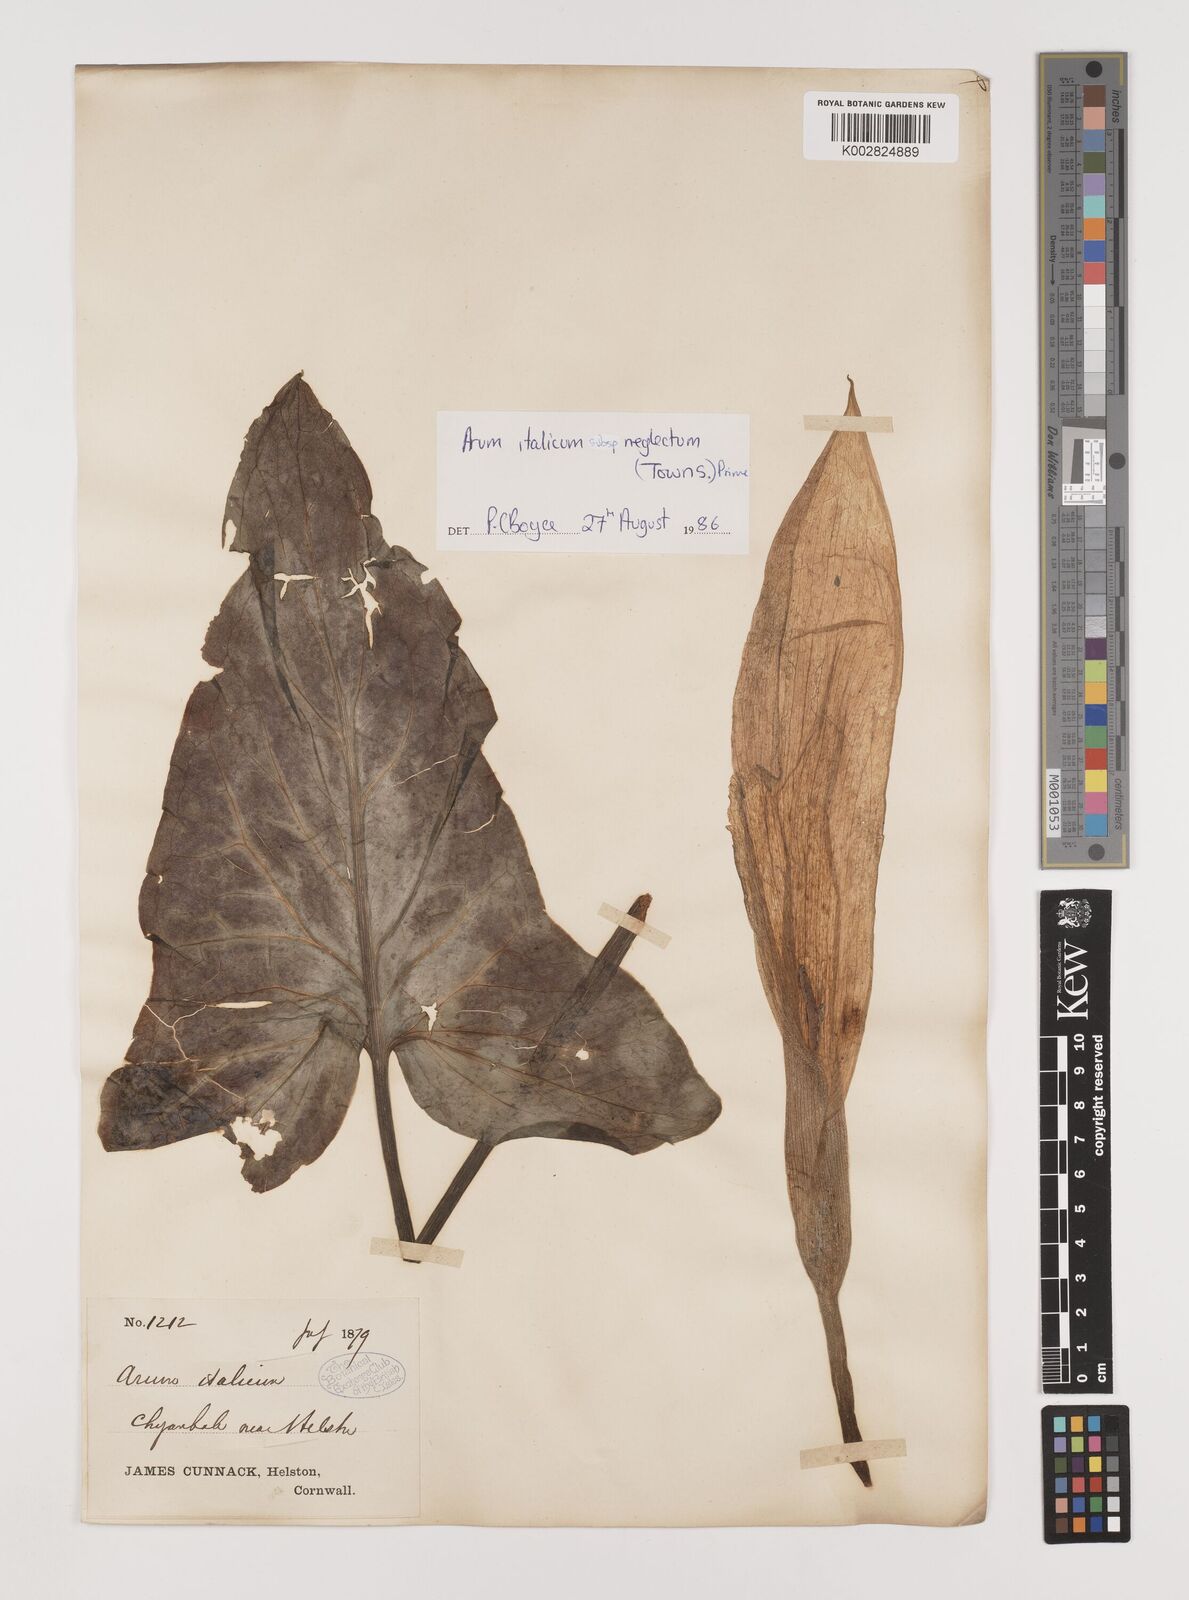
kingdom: Plantae
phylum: Tracheophyta
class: Liliopsida
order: Alismatales
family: Araceae
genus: Arum
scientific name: Arum italicum
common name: Italian lords-and-ladies
